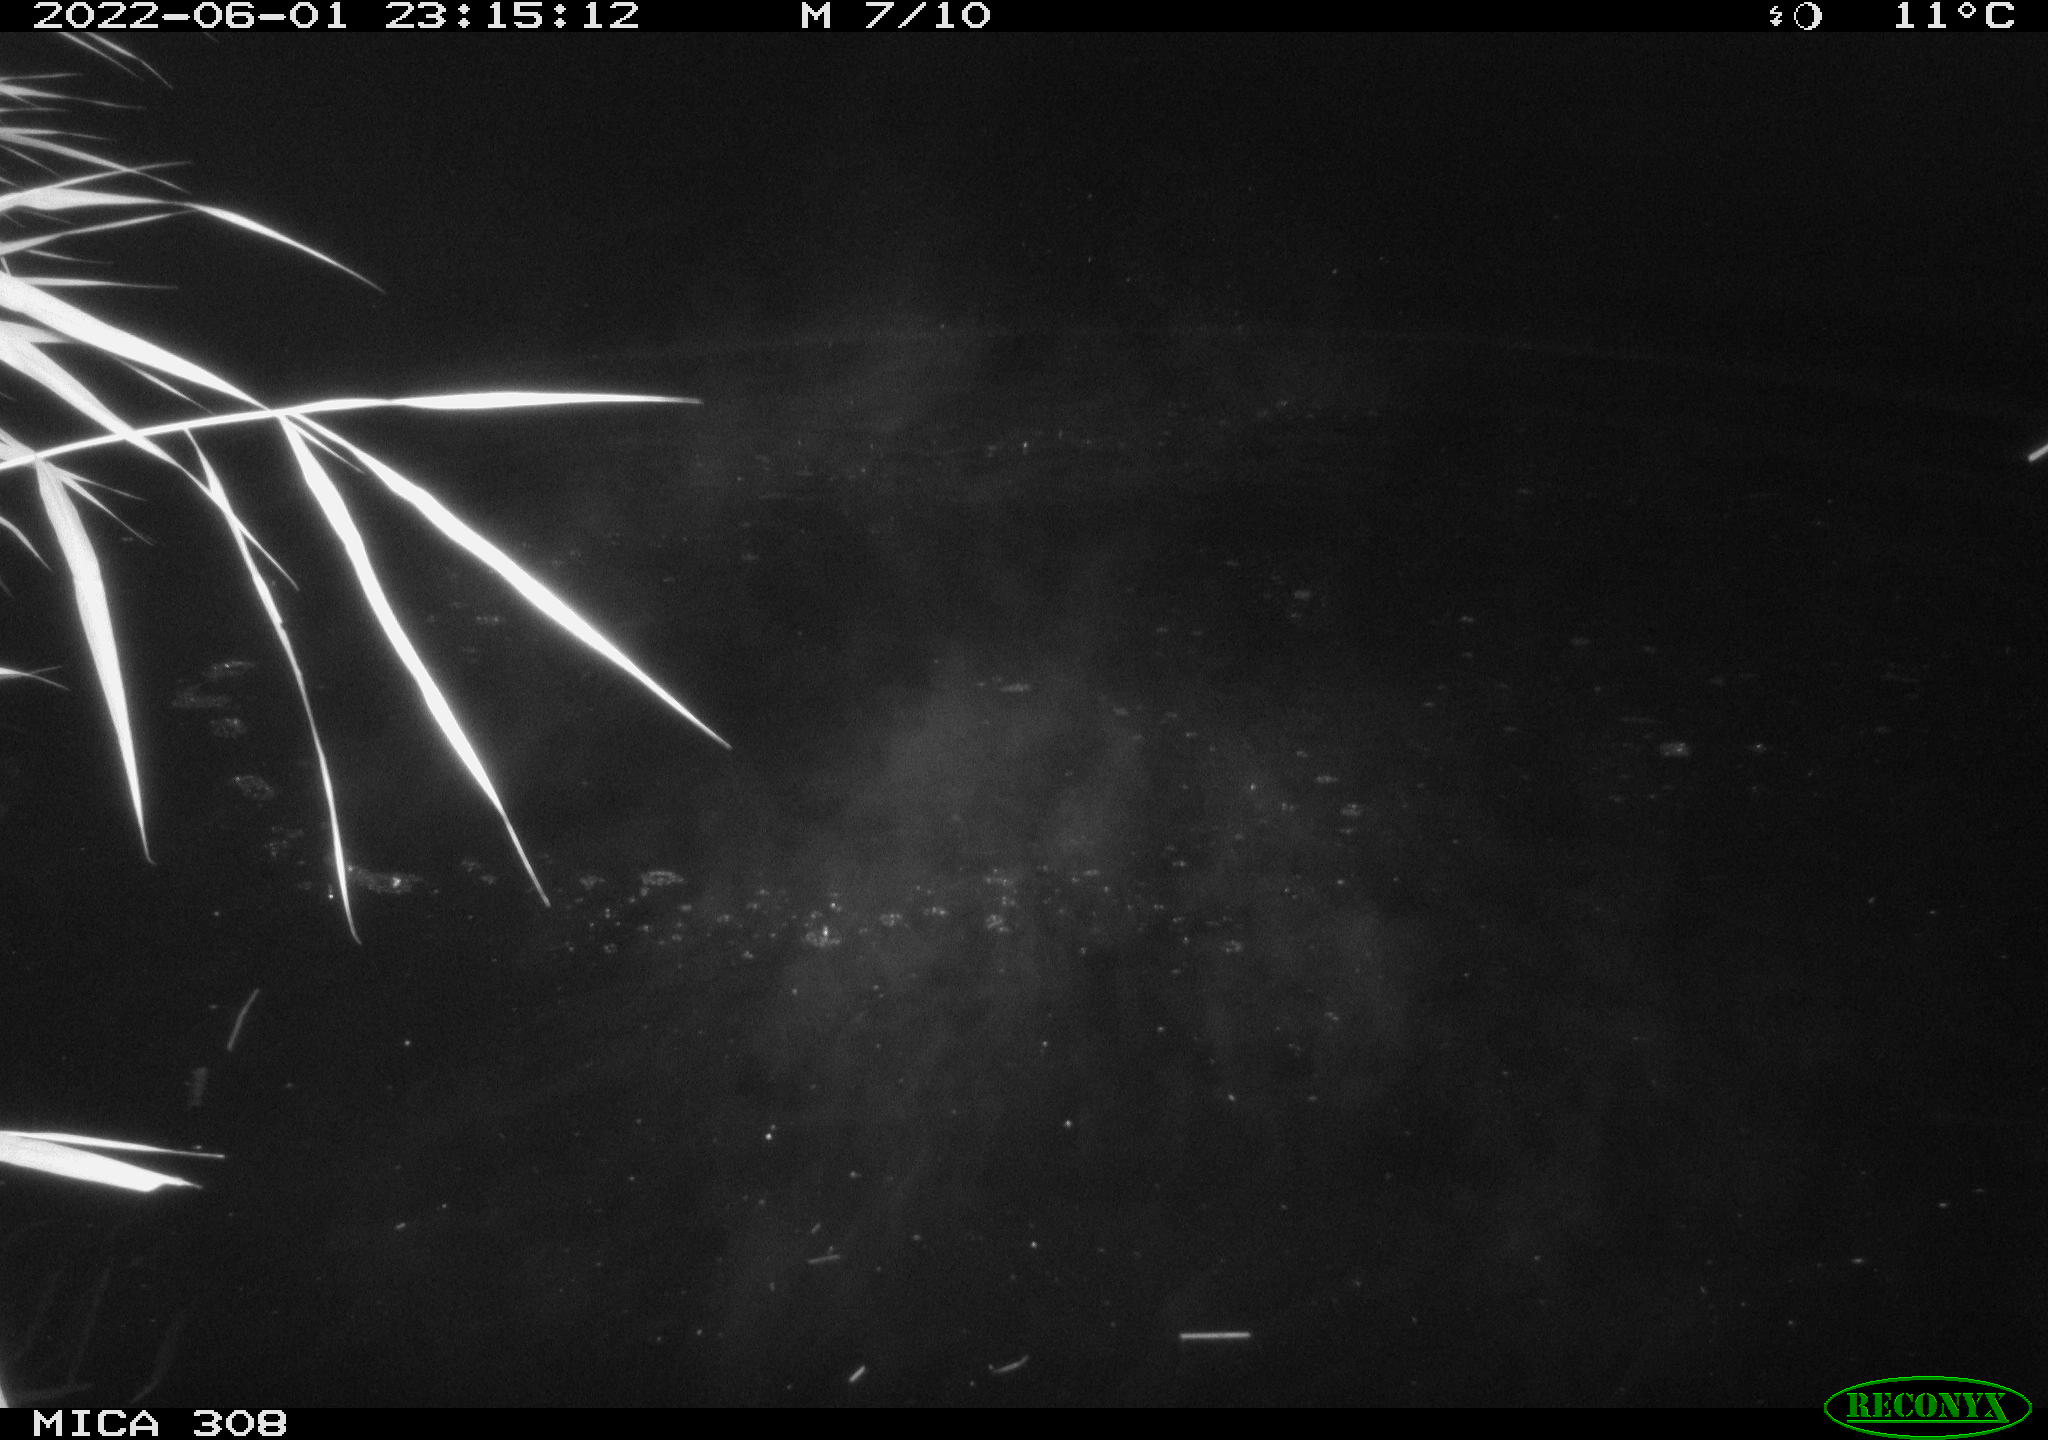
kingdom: Animalia
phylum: Chordata
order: Cypriniformes
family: Cyprinidae
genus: Cyprinus
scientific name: Cyprinus carpio
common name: Common carp
